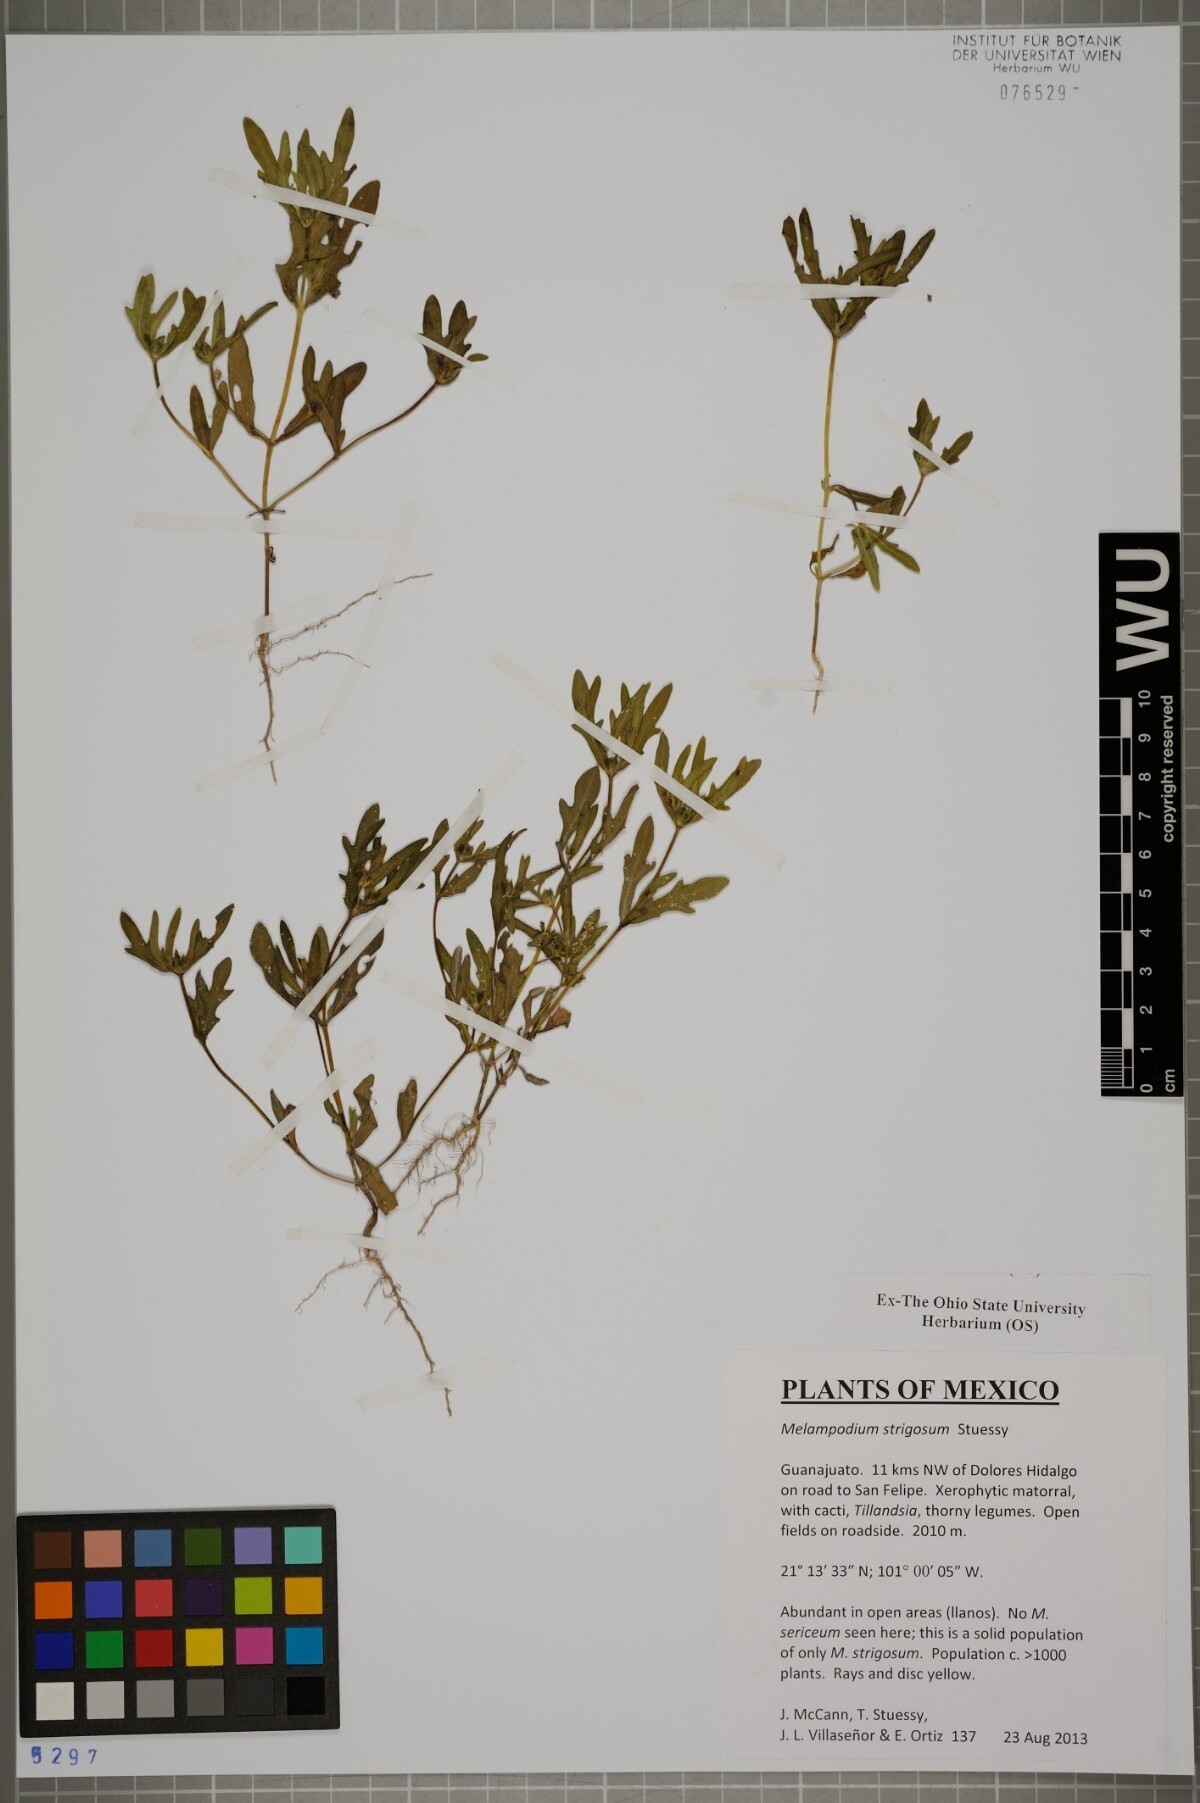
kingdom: Plantae
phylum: Tracheophyta
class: Magnoliopsida
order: Asterales
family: Asteraceae
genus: Melampodium
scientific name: Melampodium strigosum
